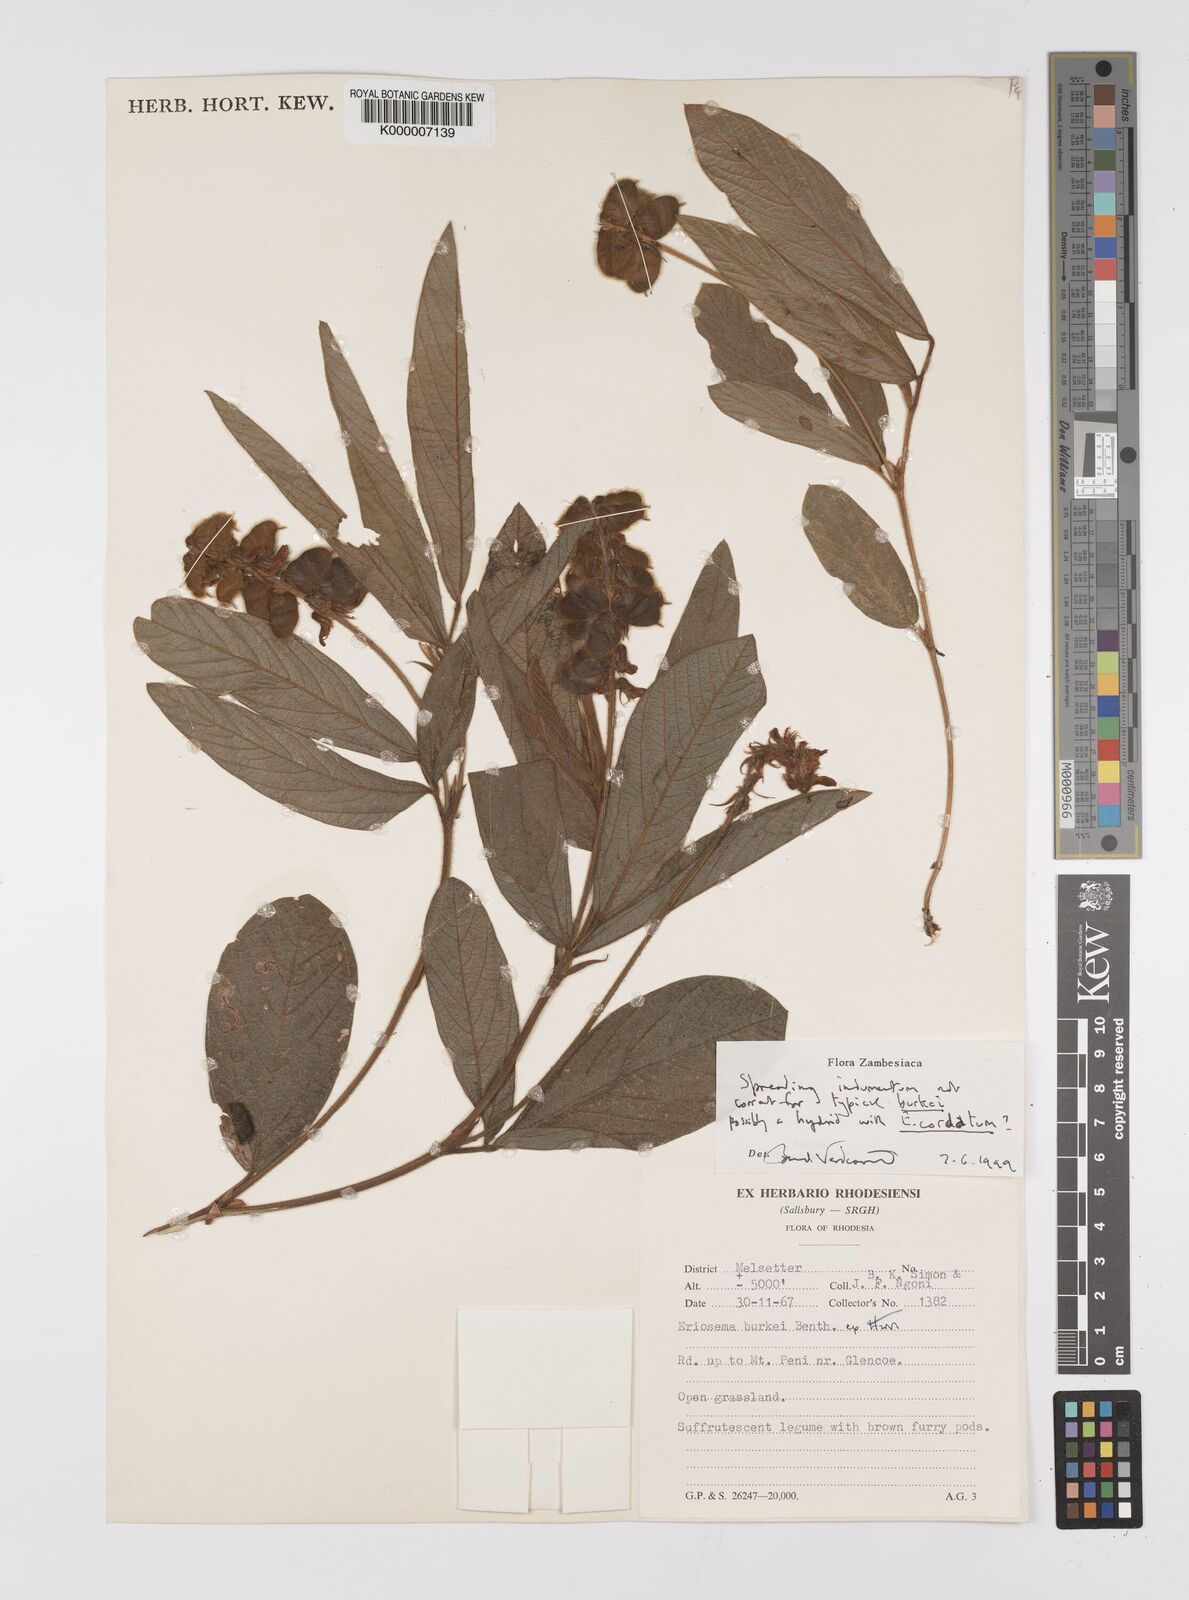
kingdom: Plantae
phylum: Tracheophyta
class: Magnoliopsida
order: Fabales
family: Fabaceae
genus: Eriosema
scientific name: Eriosema burkei
